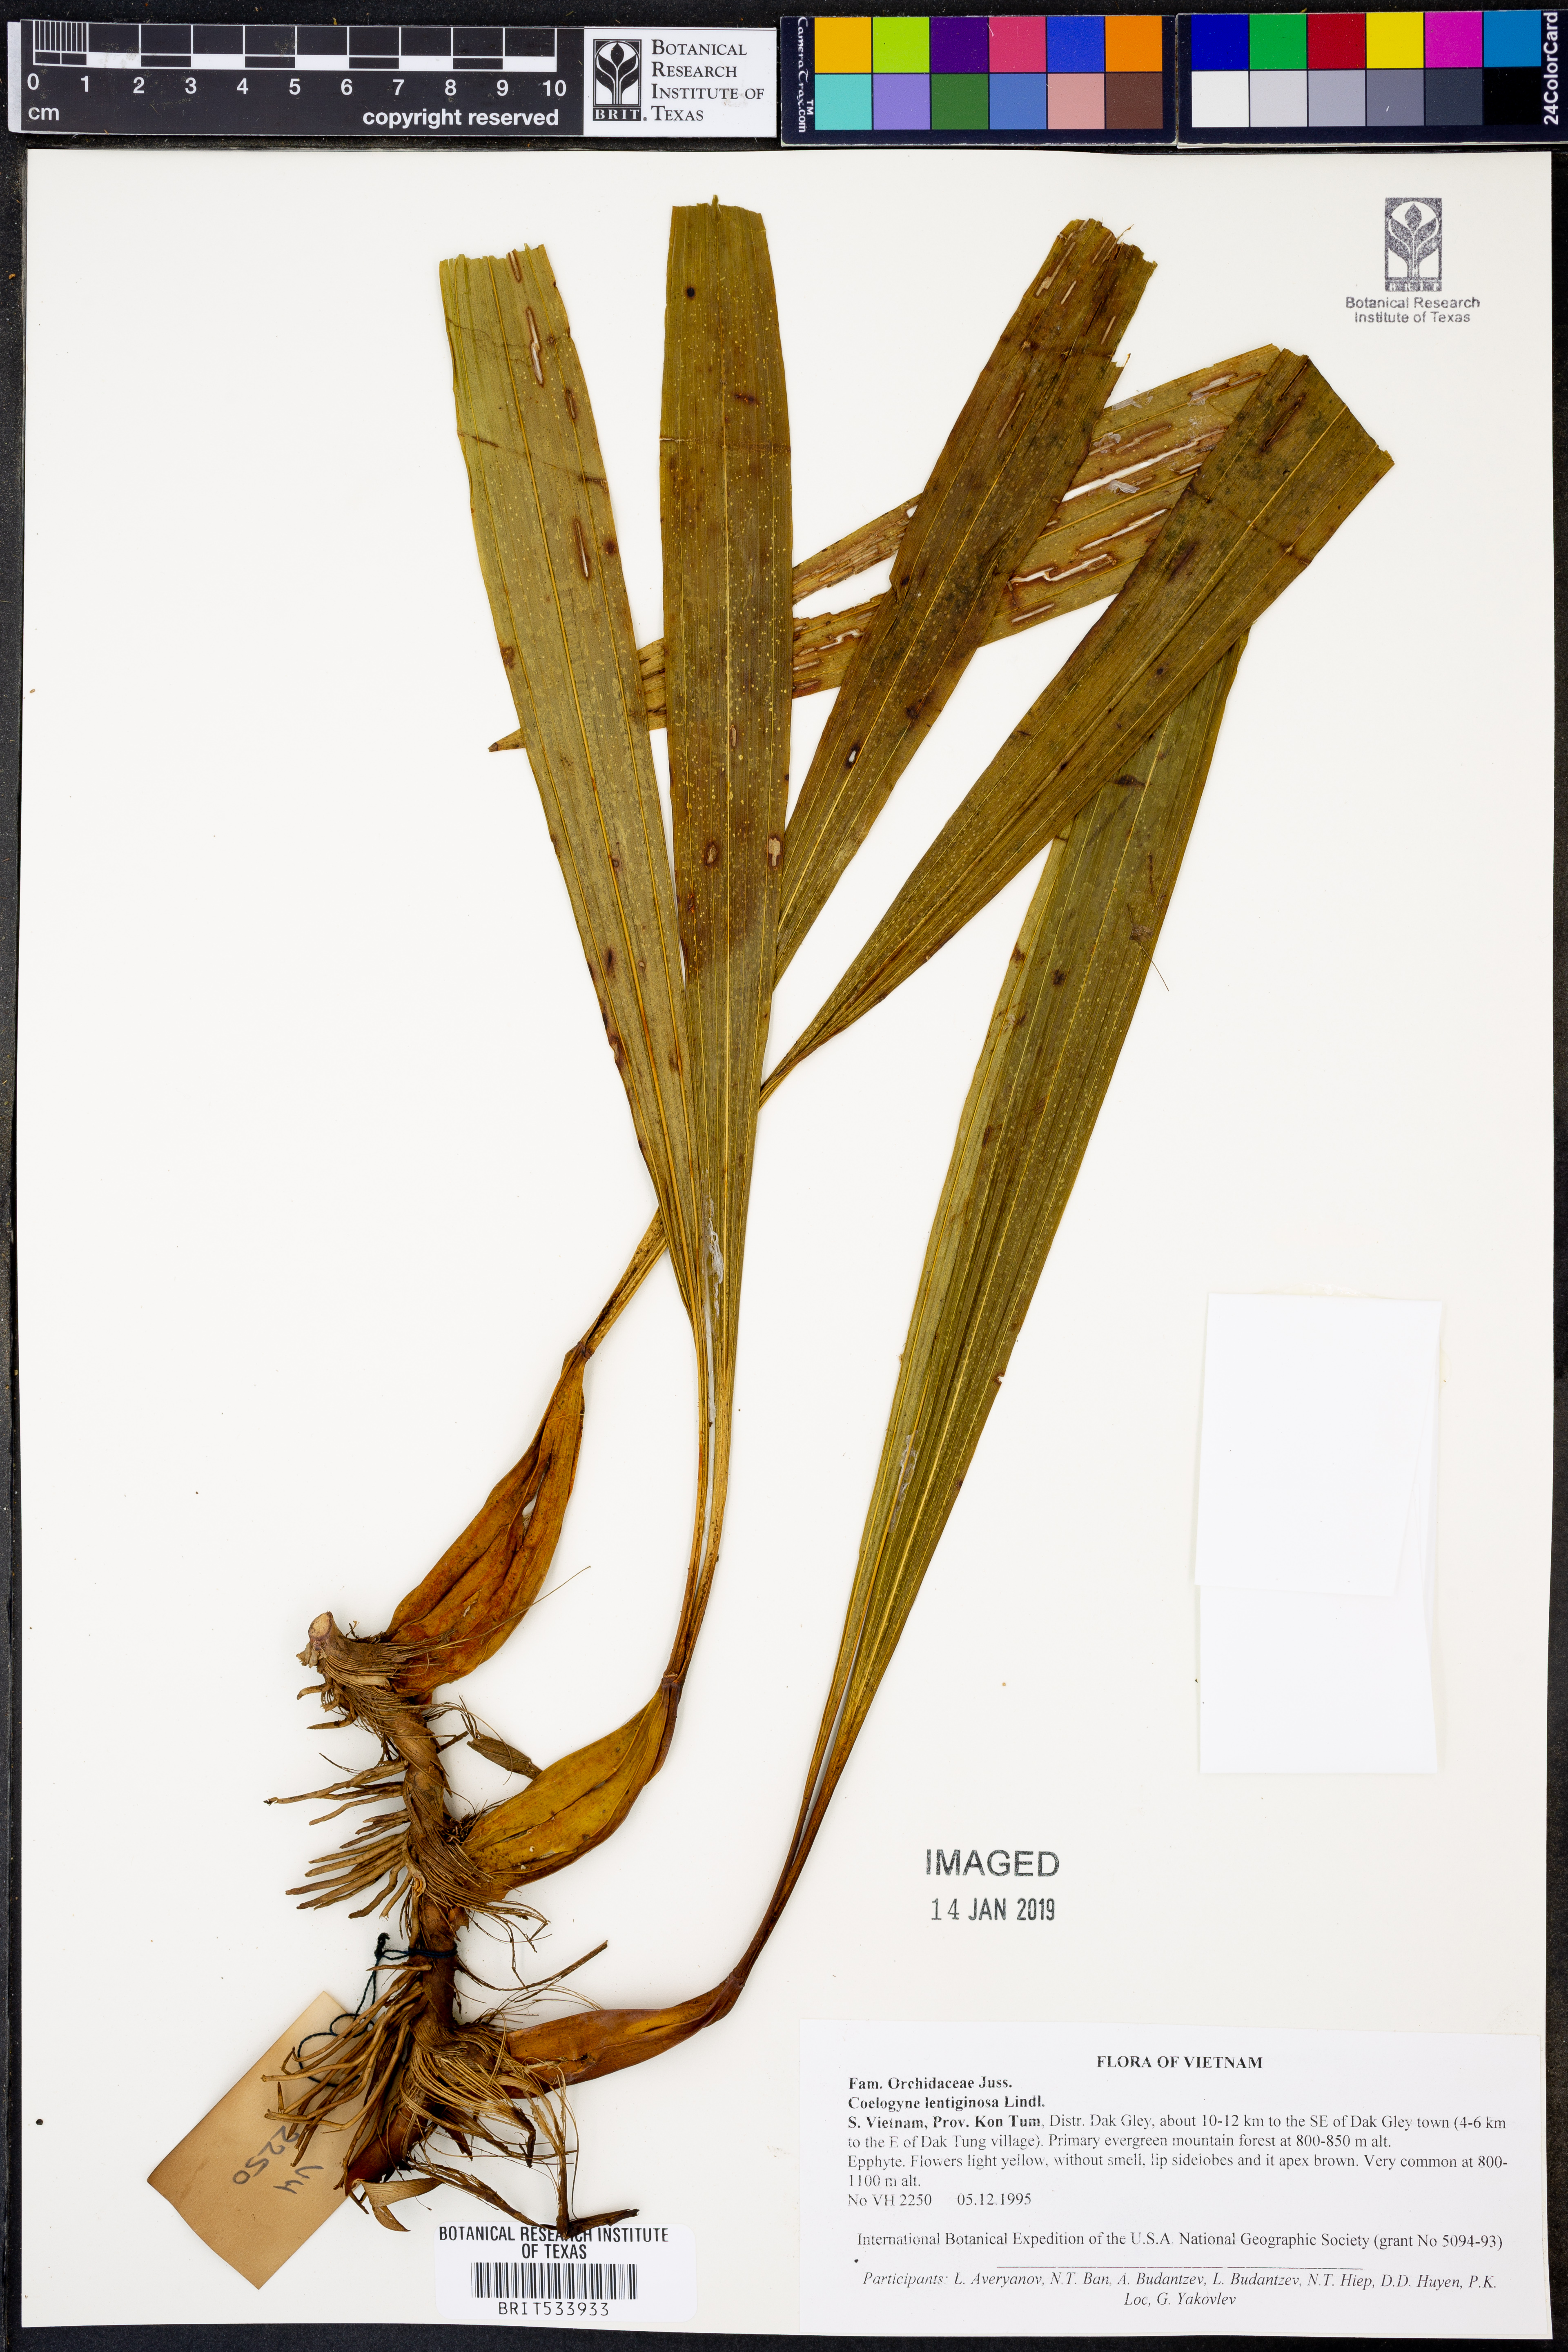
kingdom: Plantae
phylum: Tracheophyta
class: Liliopsida
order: Asparagales
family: Orchidaceae
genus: Coelogyne
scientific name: Coelogyne lentiginosa
